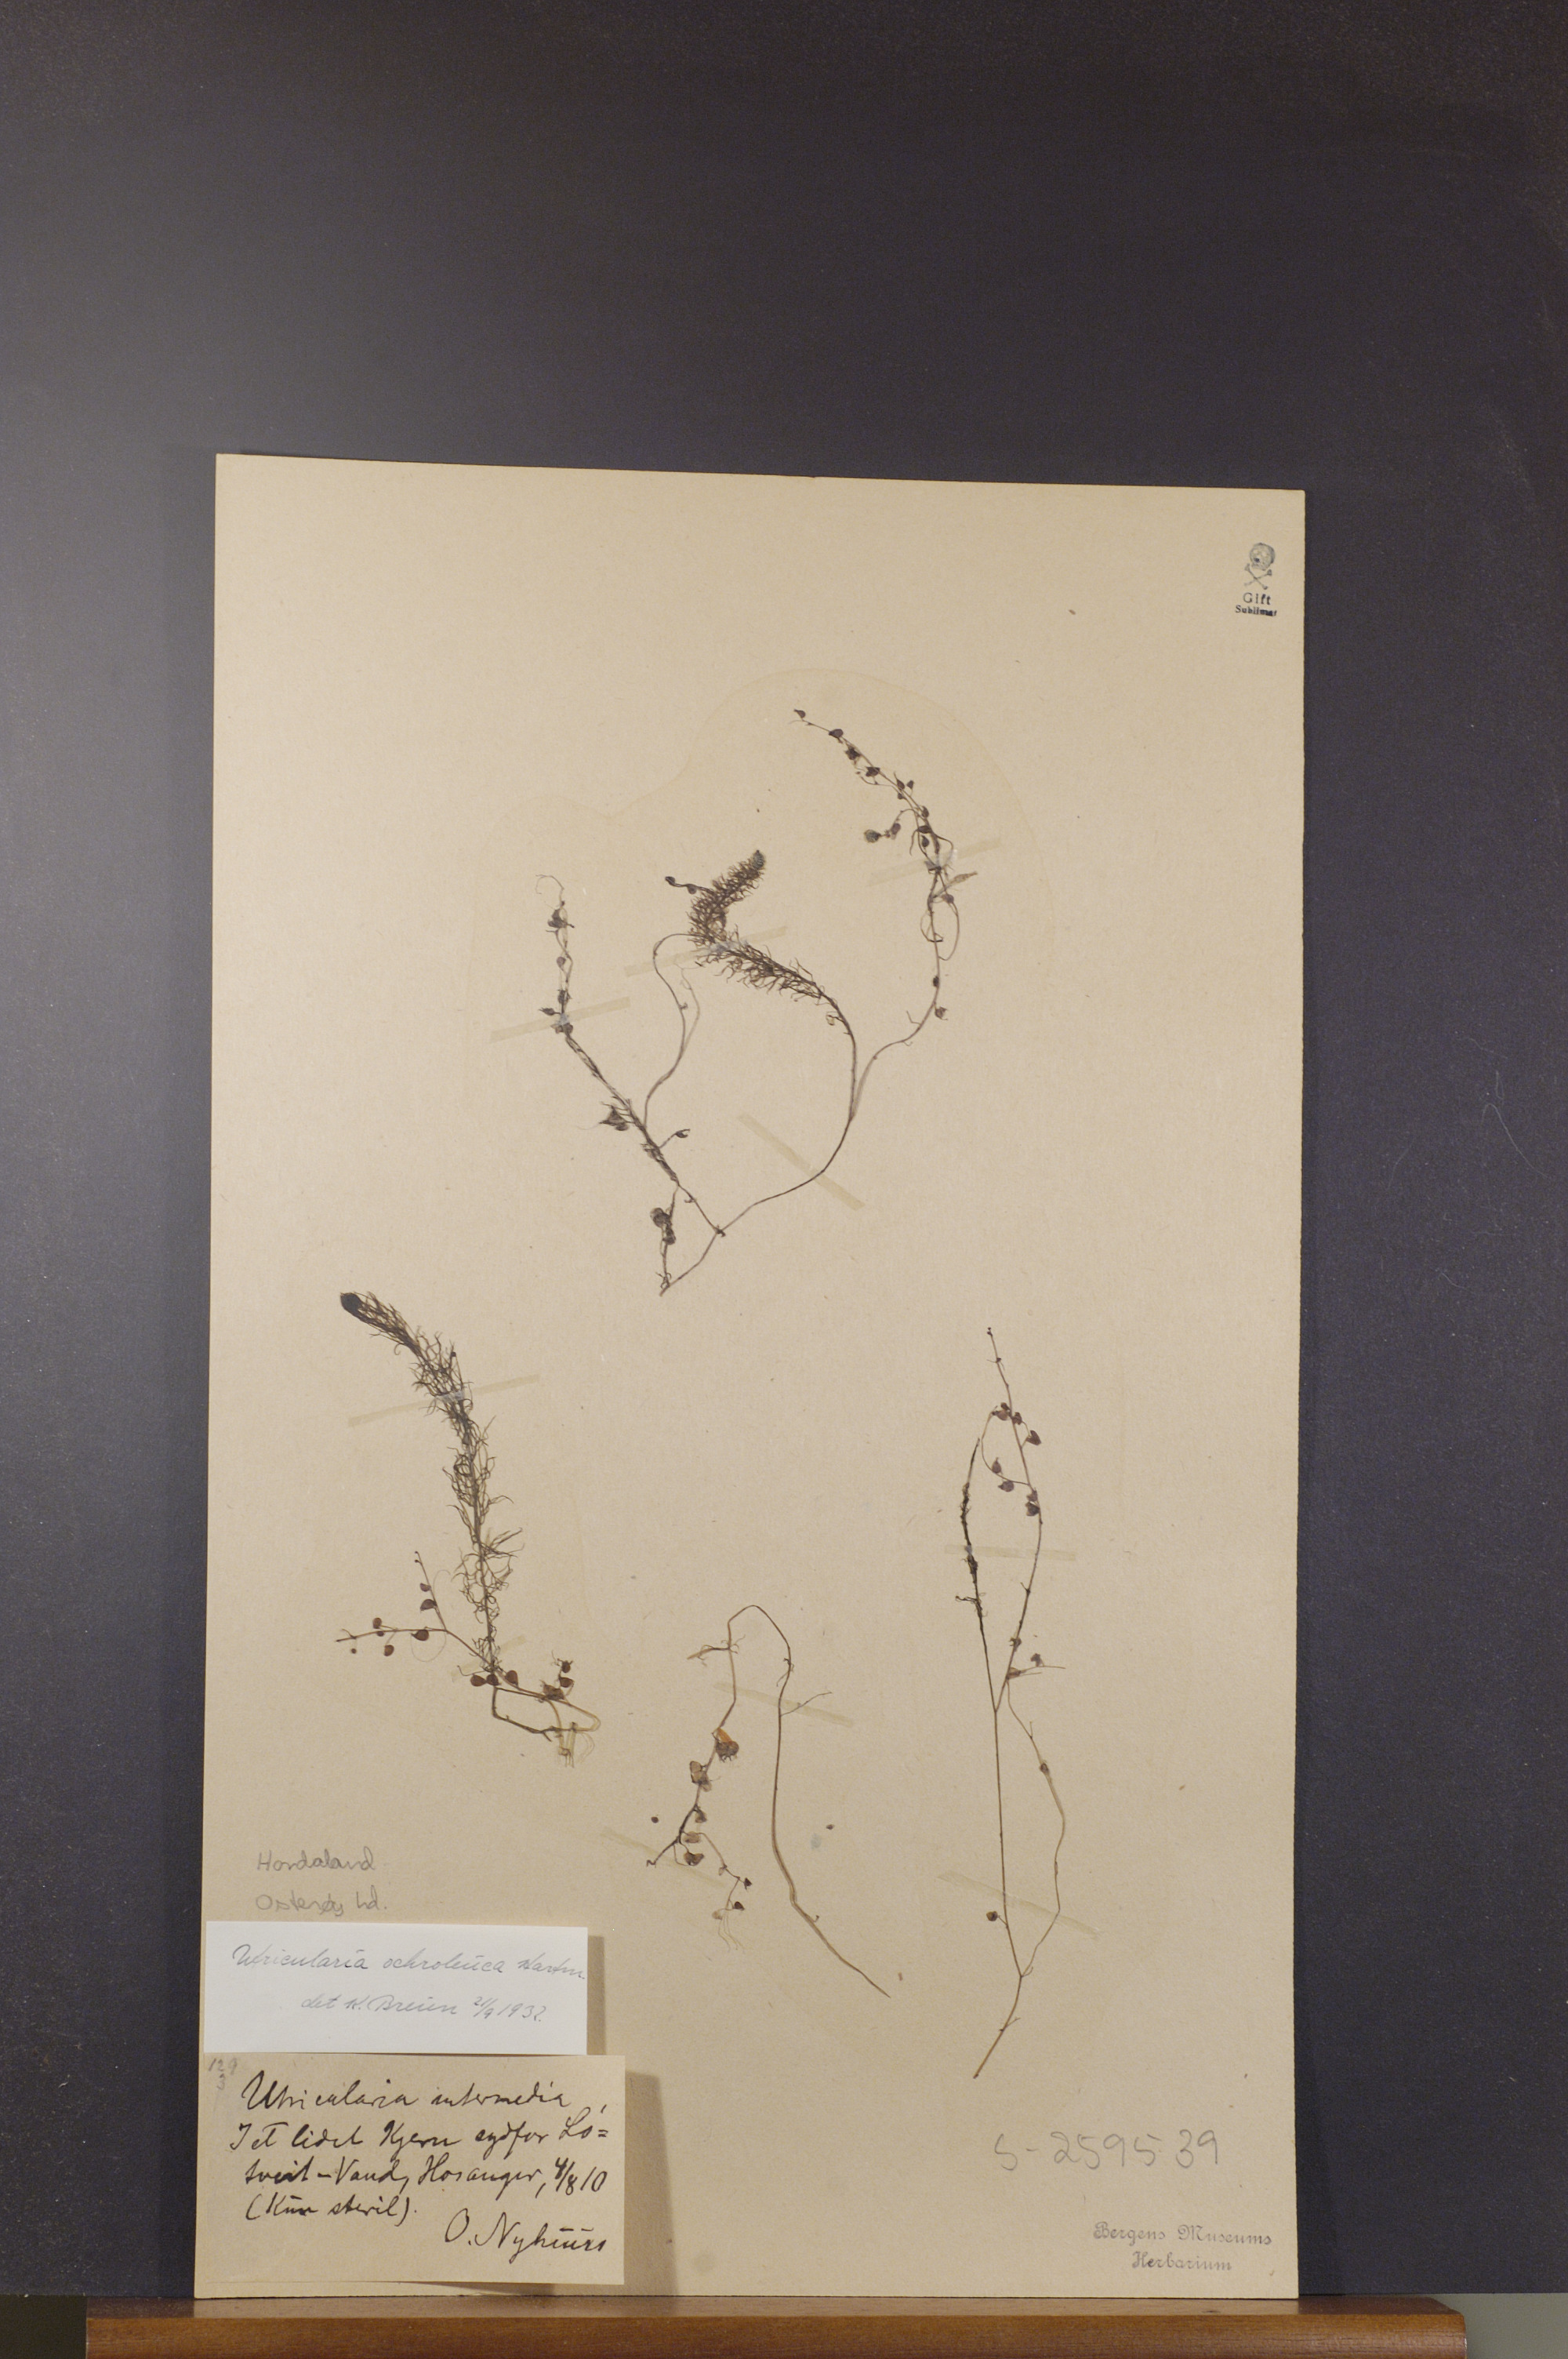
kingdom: Plantae
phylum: Tracheophyta
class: Magnoliopsida
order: Lamiales
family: Lentibulariaceae
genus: Utricularia
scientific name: Utricularia ochroleuca
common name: Pale bladderwort
